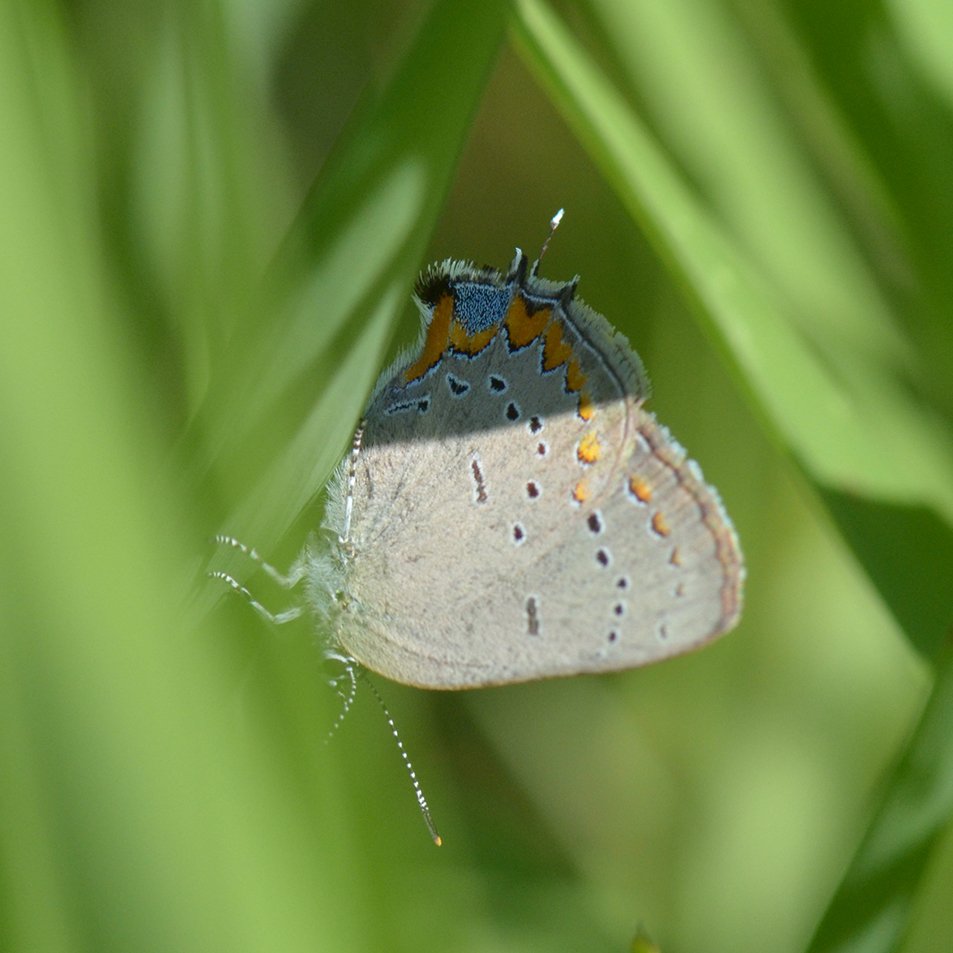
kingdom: Animalia
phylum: Arthropoda
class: Insecta
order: Lepidoptera
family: Lycaenidae
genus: Strymon
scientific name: Strymon acadica
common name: Acadian Hairstreak
